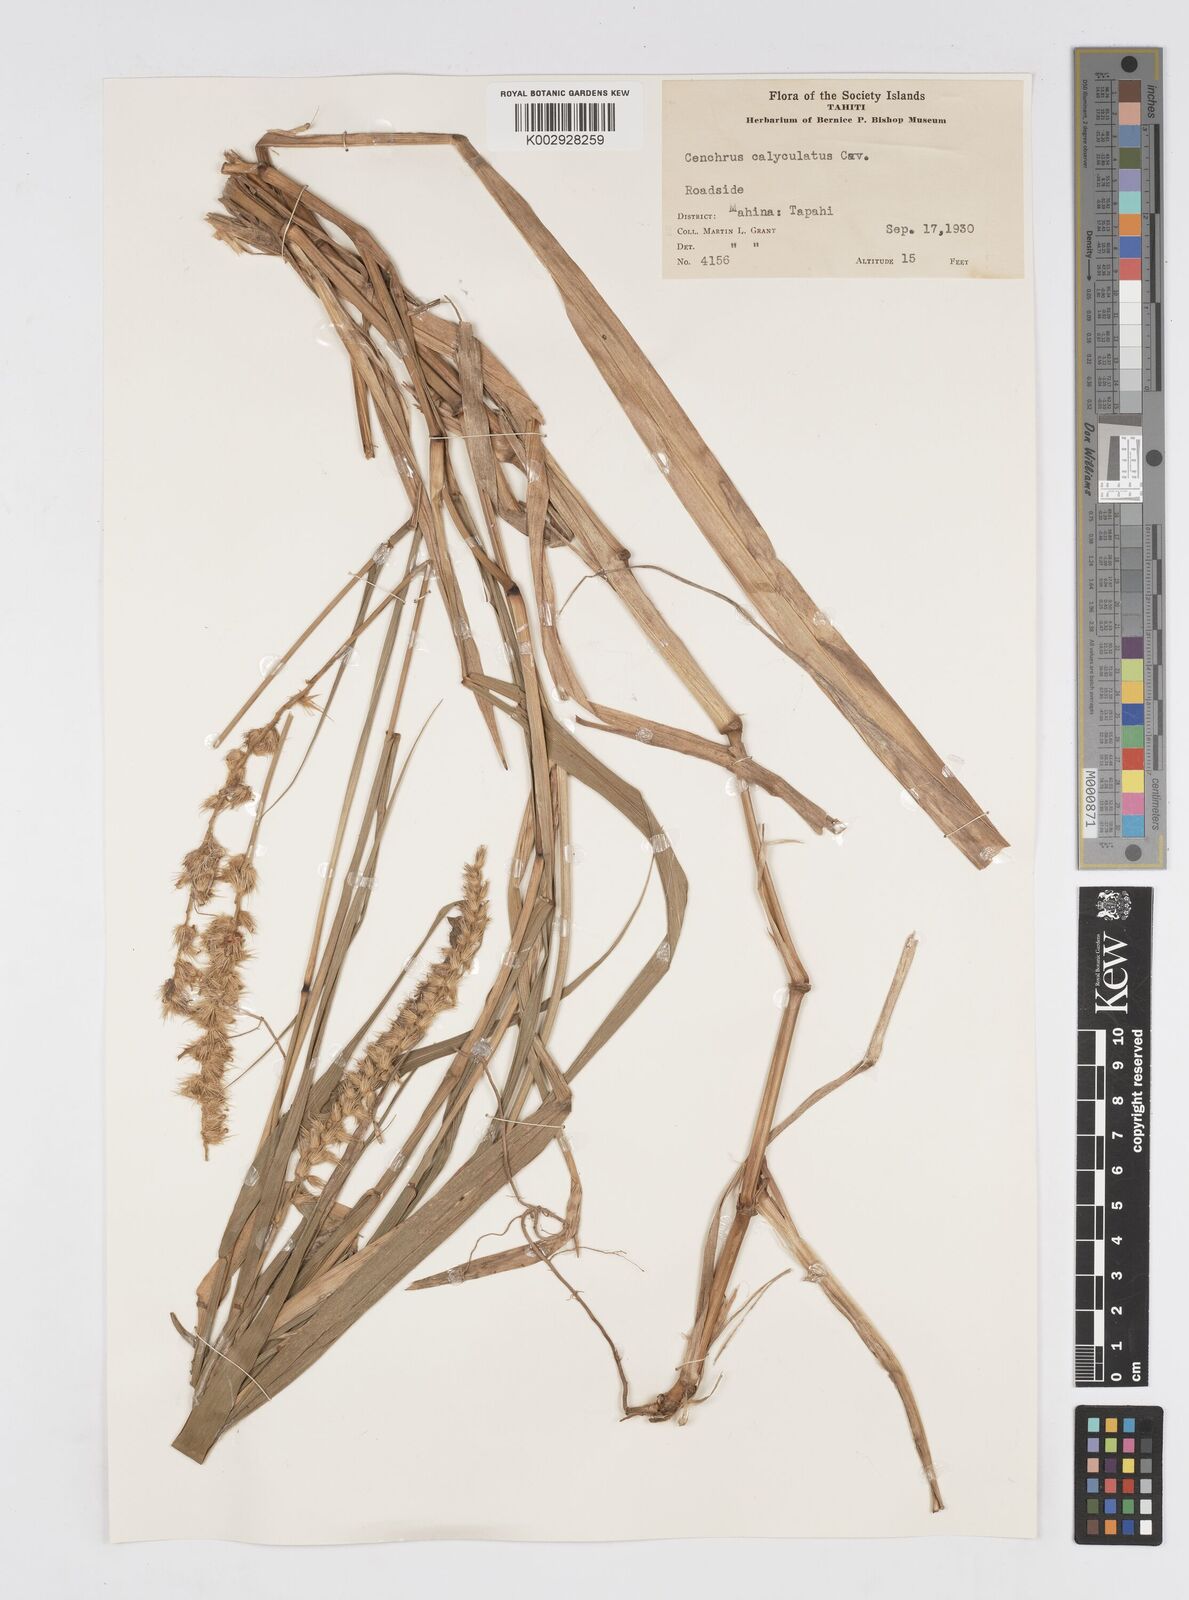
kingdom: Plantae
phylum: Tracheophyta
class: Liliopsida
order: Poales
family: Poaceae
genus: Cenchrus
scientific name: Cenchrus caliculatus
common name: Large bur grass
